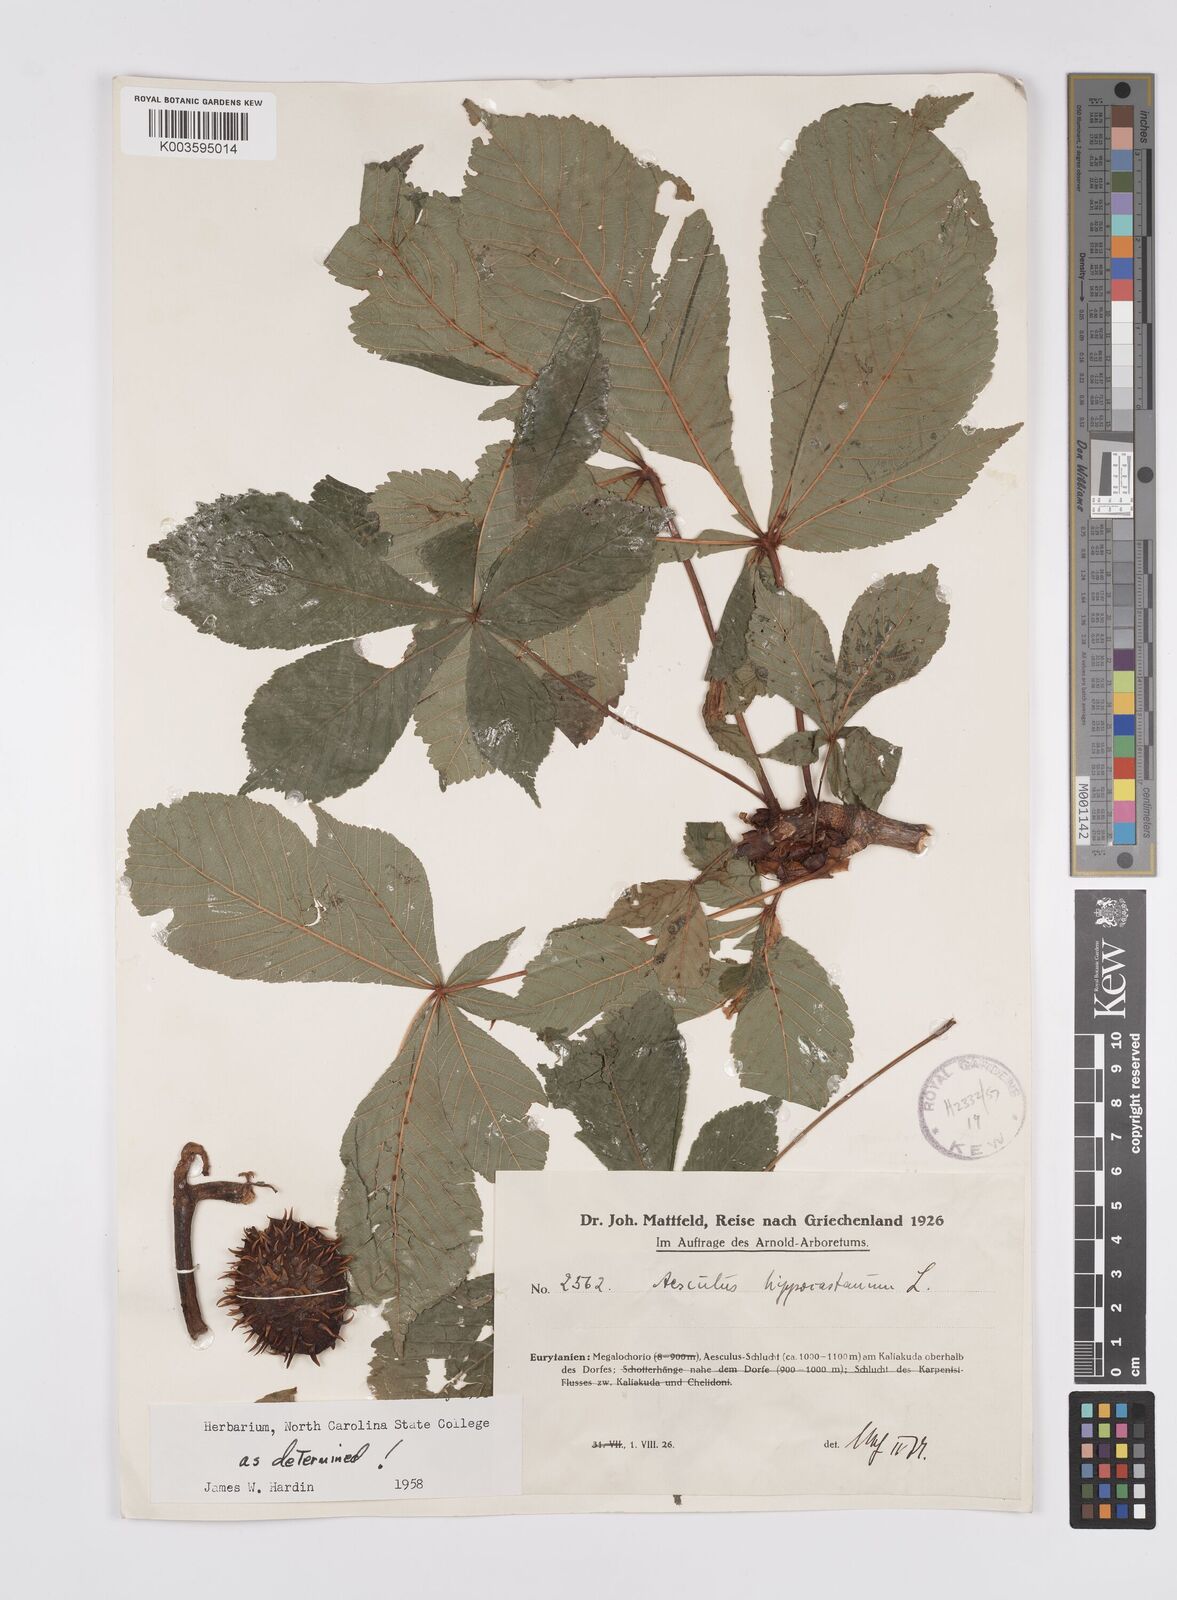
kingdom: Plantae
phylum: Tracheophyta
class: Magnoliopsida
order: Sapindales
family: Sapindaceae
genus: Aesculus
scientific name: Aesculus hippocastanum
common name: Horse-chestnut
